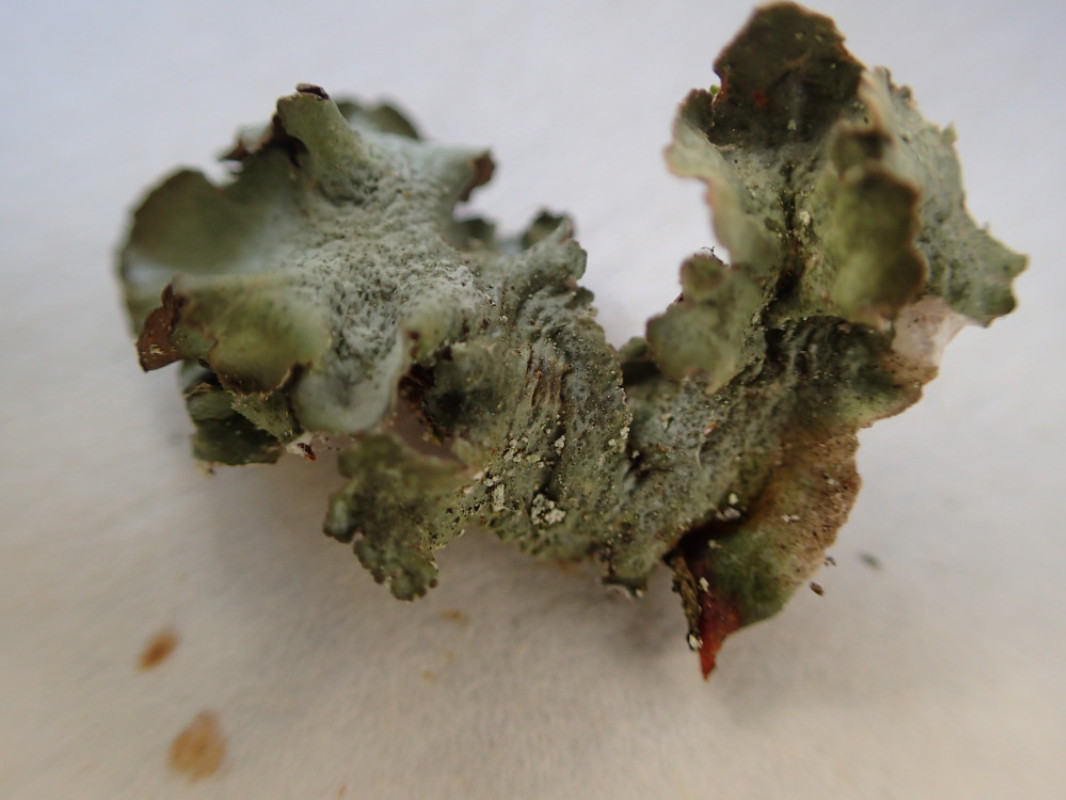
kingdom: Fungi
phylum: Ascomycota
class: Lecanoromycetes
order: Lecanorales
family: Parmeliaceae
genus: Pleurosticta
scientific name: Pleurosticta acetabulum
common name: stor skållav
